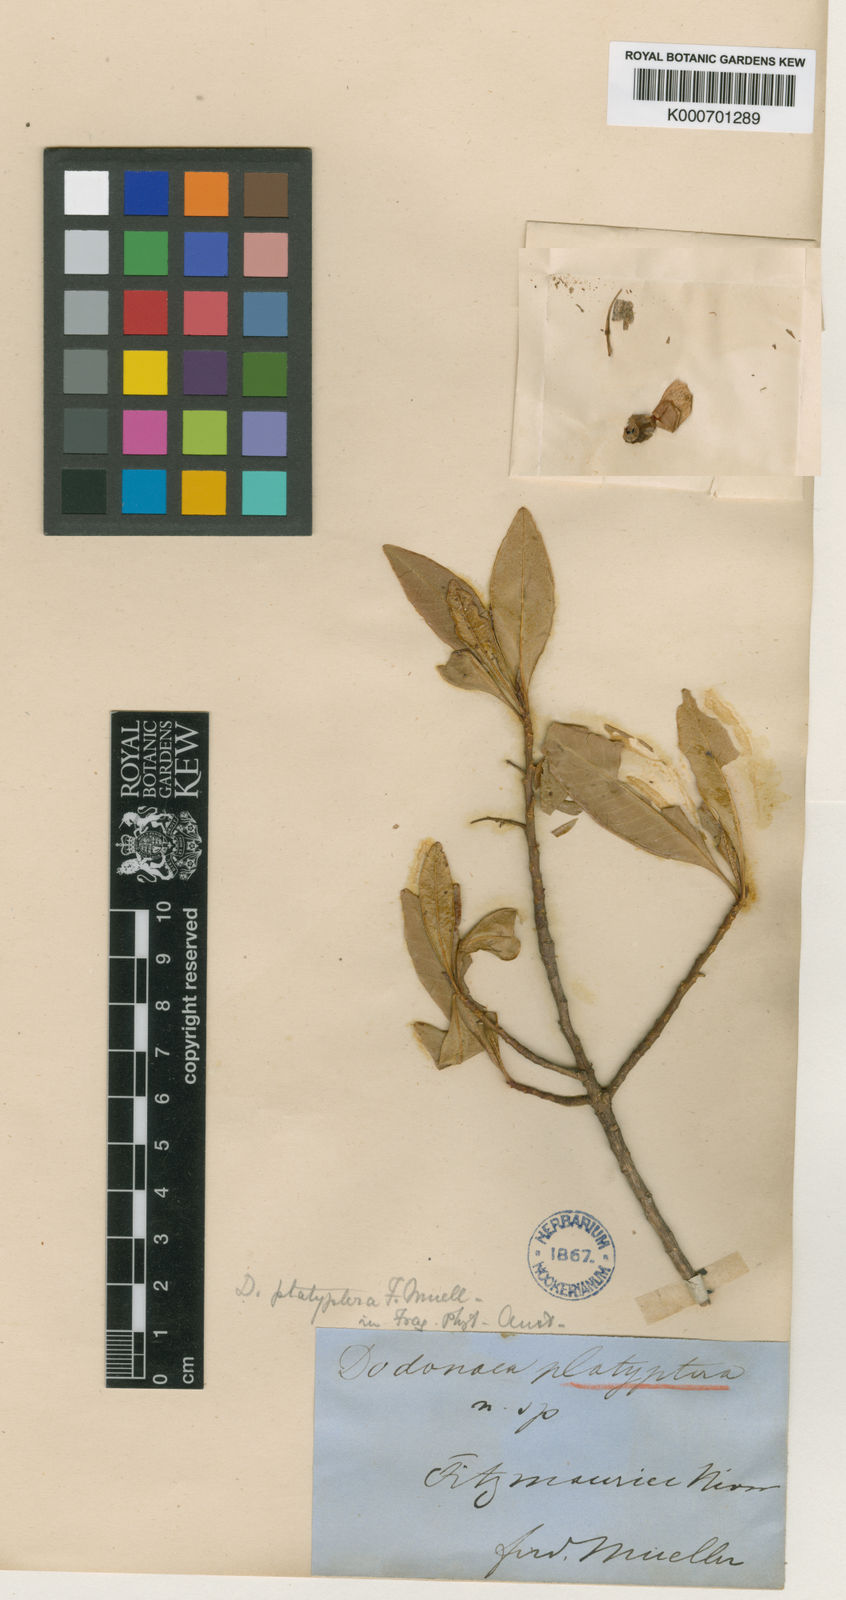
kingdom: Plantae
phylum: Tracheophyta
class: Magnoliopsida
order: Sapindales
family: Sapindaceae
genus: Dodonaea
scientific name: Dodonaea platyptera
